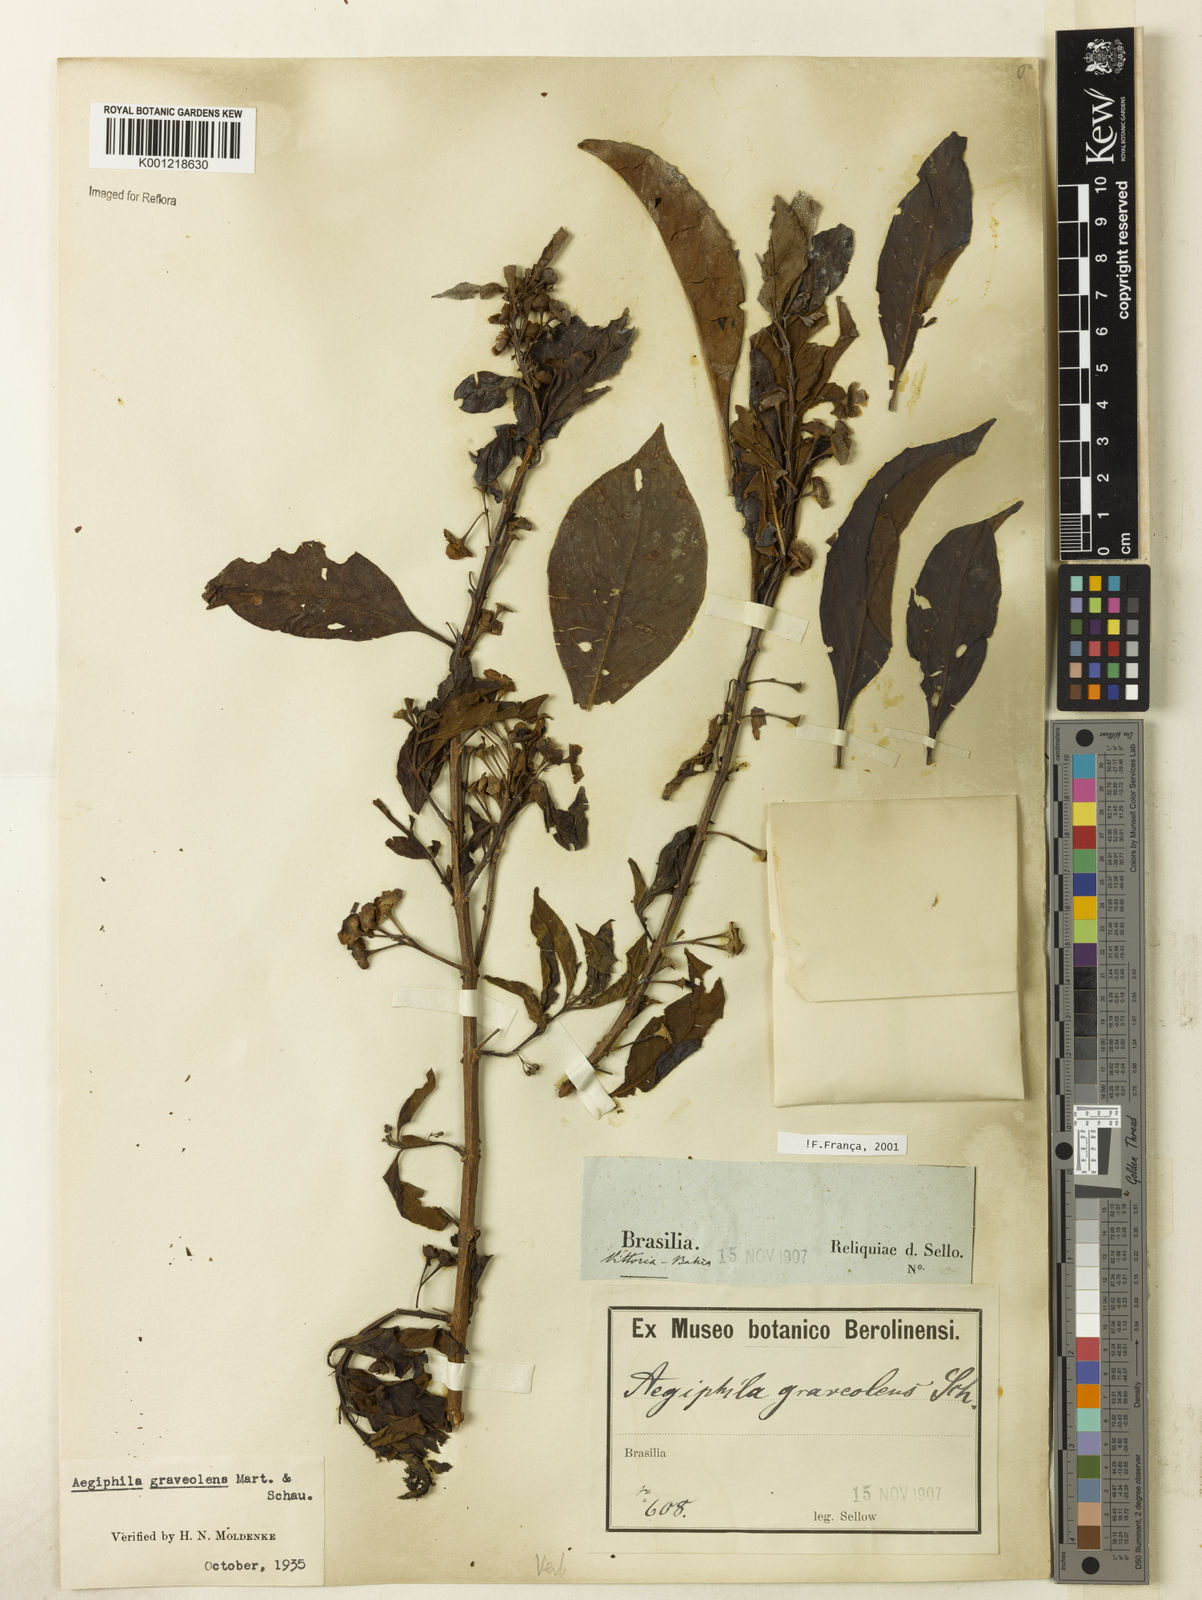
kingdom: Plantae
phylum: Tracheophyta
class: Magnoliopsida
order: Lamiales
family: Lamiaceae
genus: Aegiphila
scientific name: Aegiphila graveolens
